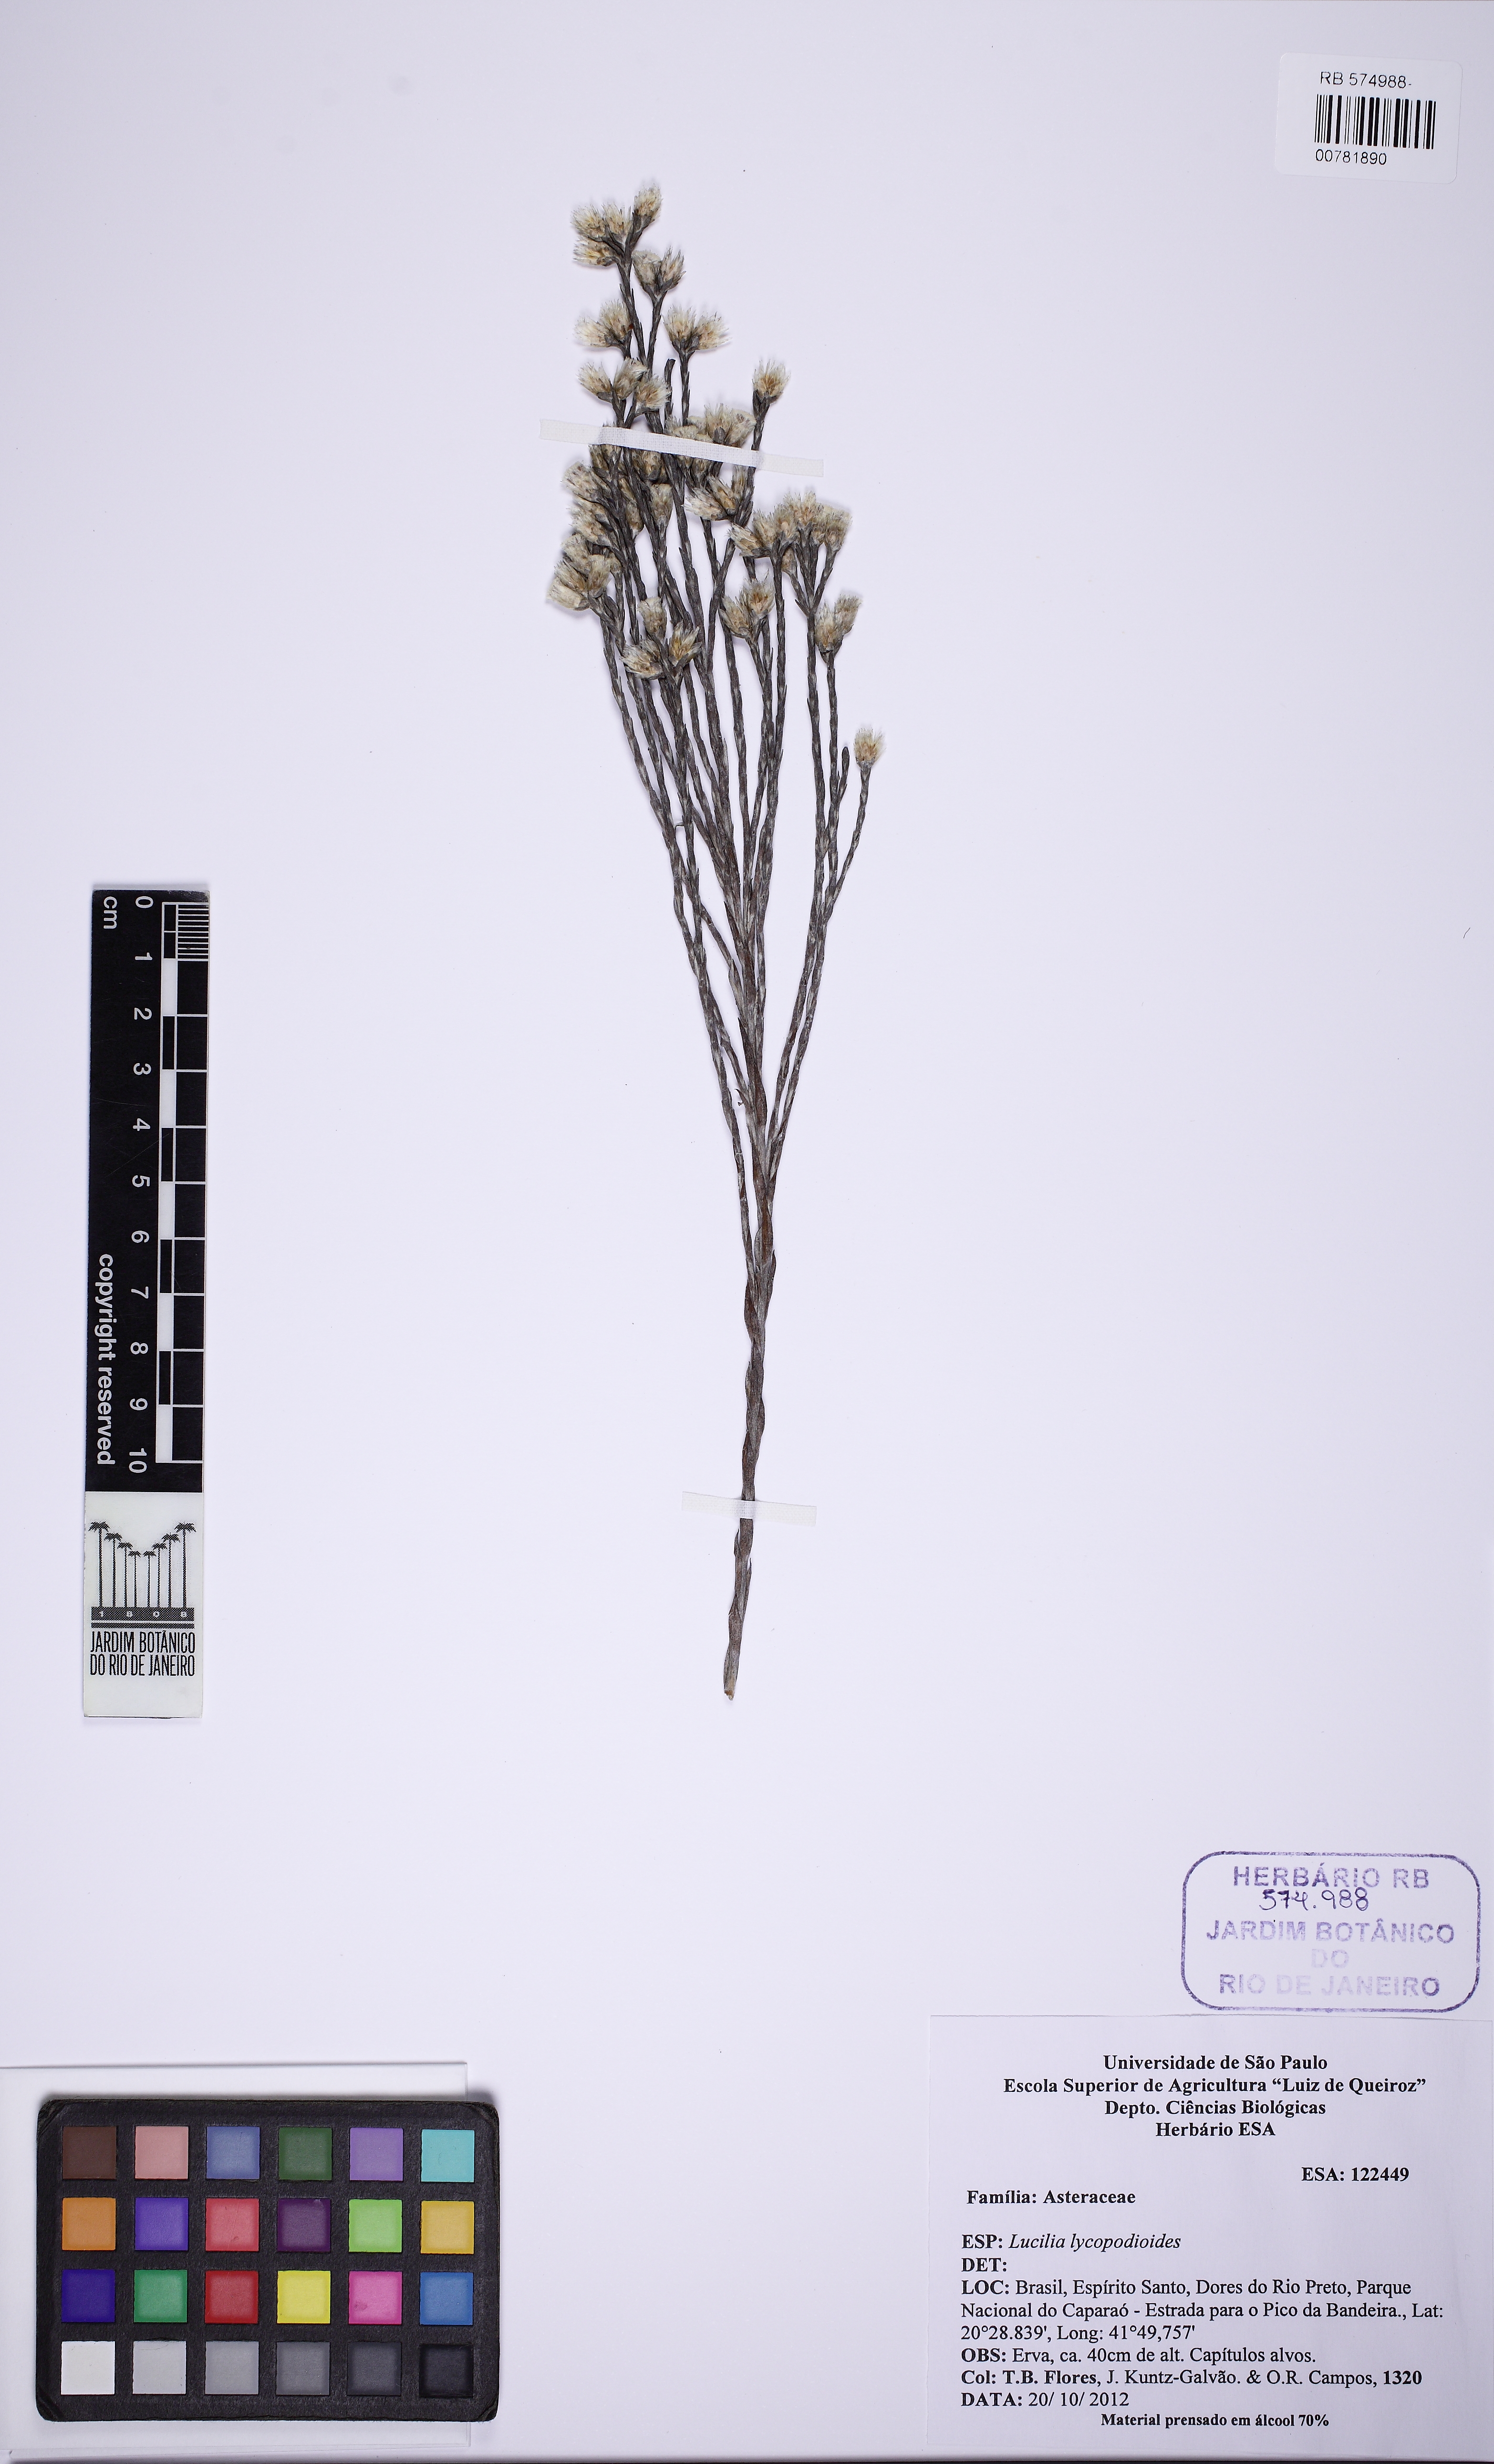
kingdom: Plantae
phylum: Tracheophyta
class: Magnoliopsida
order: Asterales
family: Asteraceae
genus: Lucilia
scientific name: Lucilia lycopodioides
